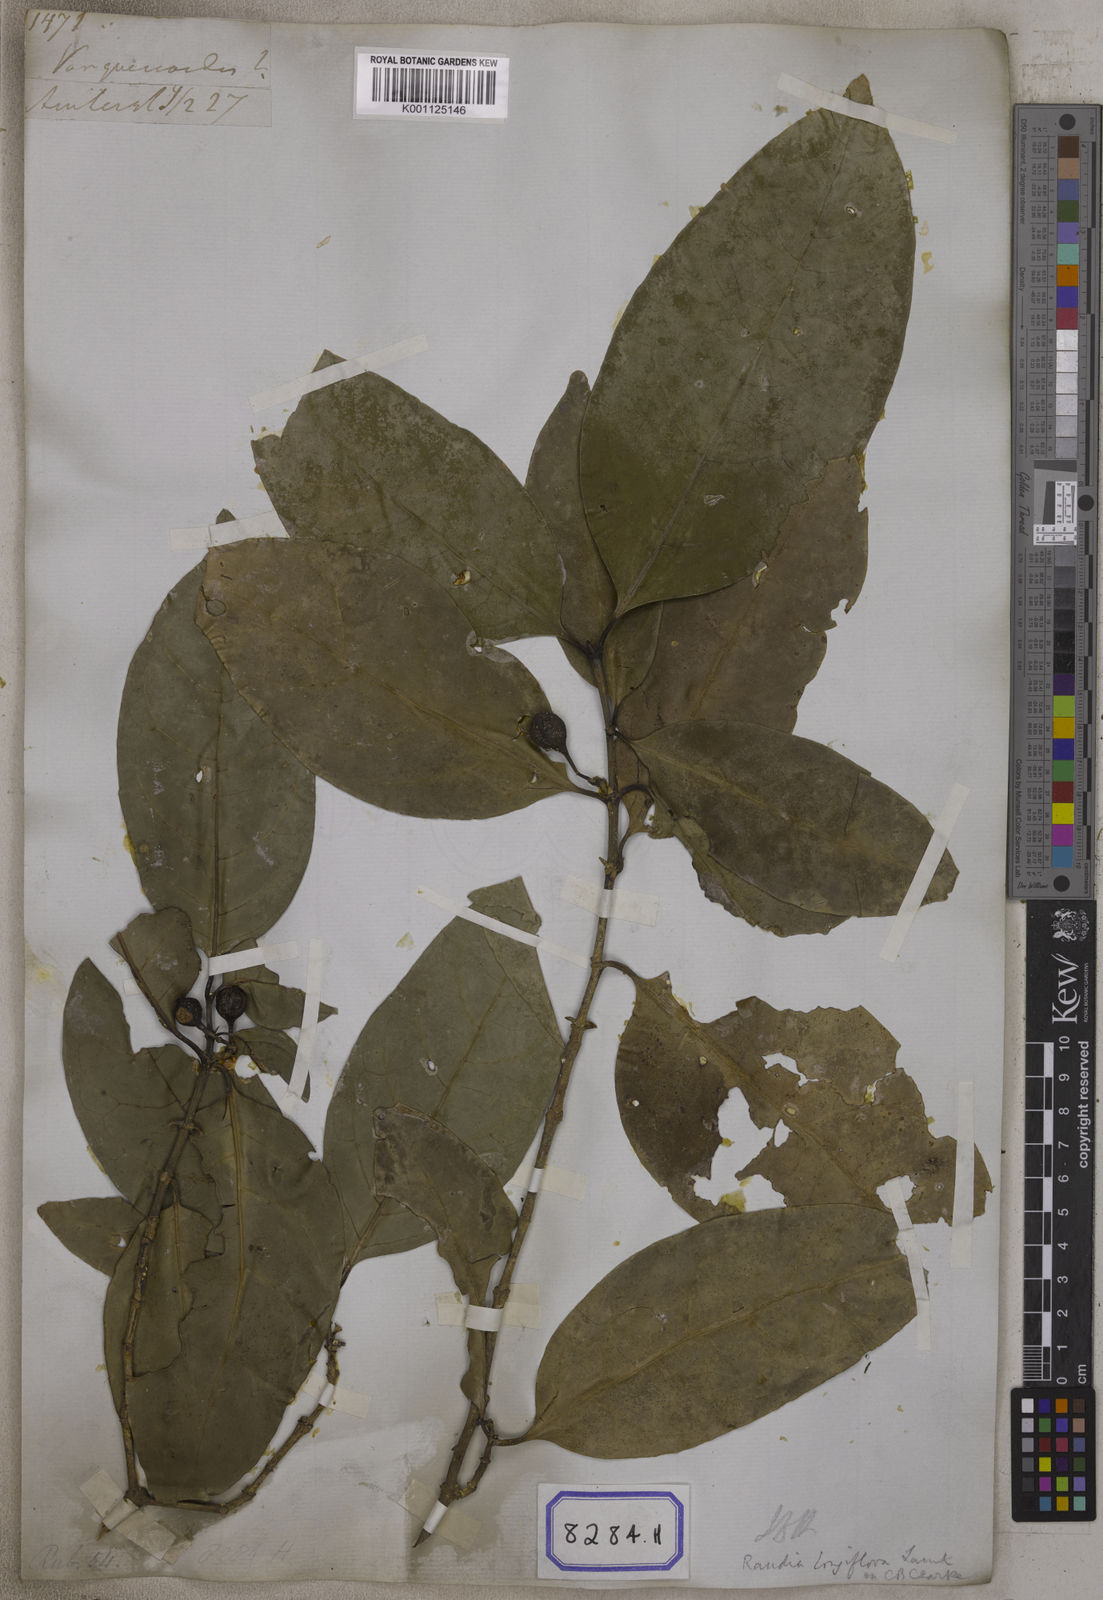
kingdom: Plantae
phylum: Tracheophyta
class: Magnoliopsida
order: Gentianales
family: Rubiaceae
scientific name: Rubiaceae
